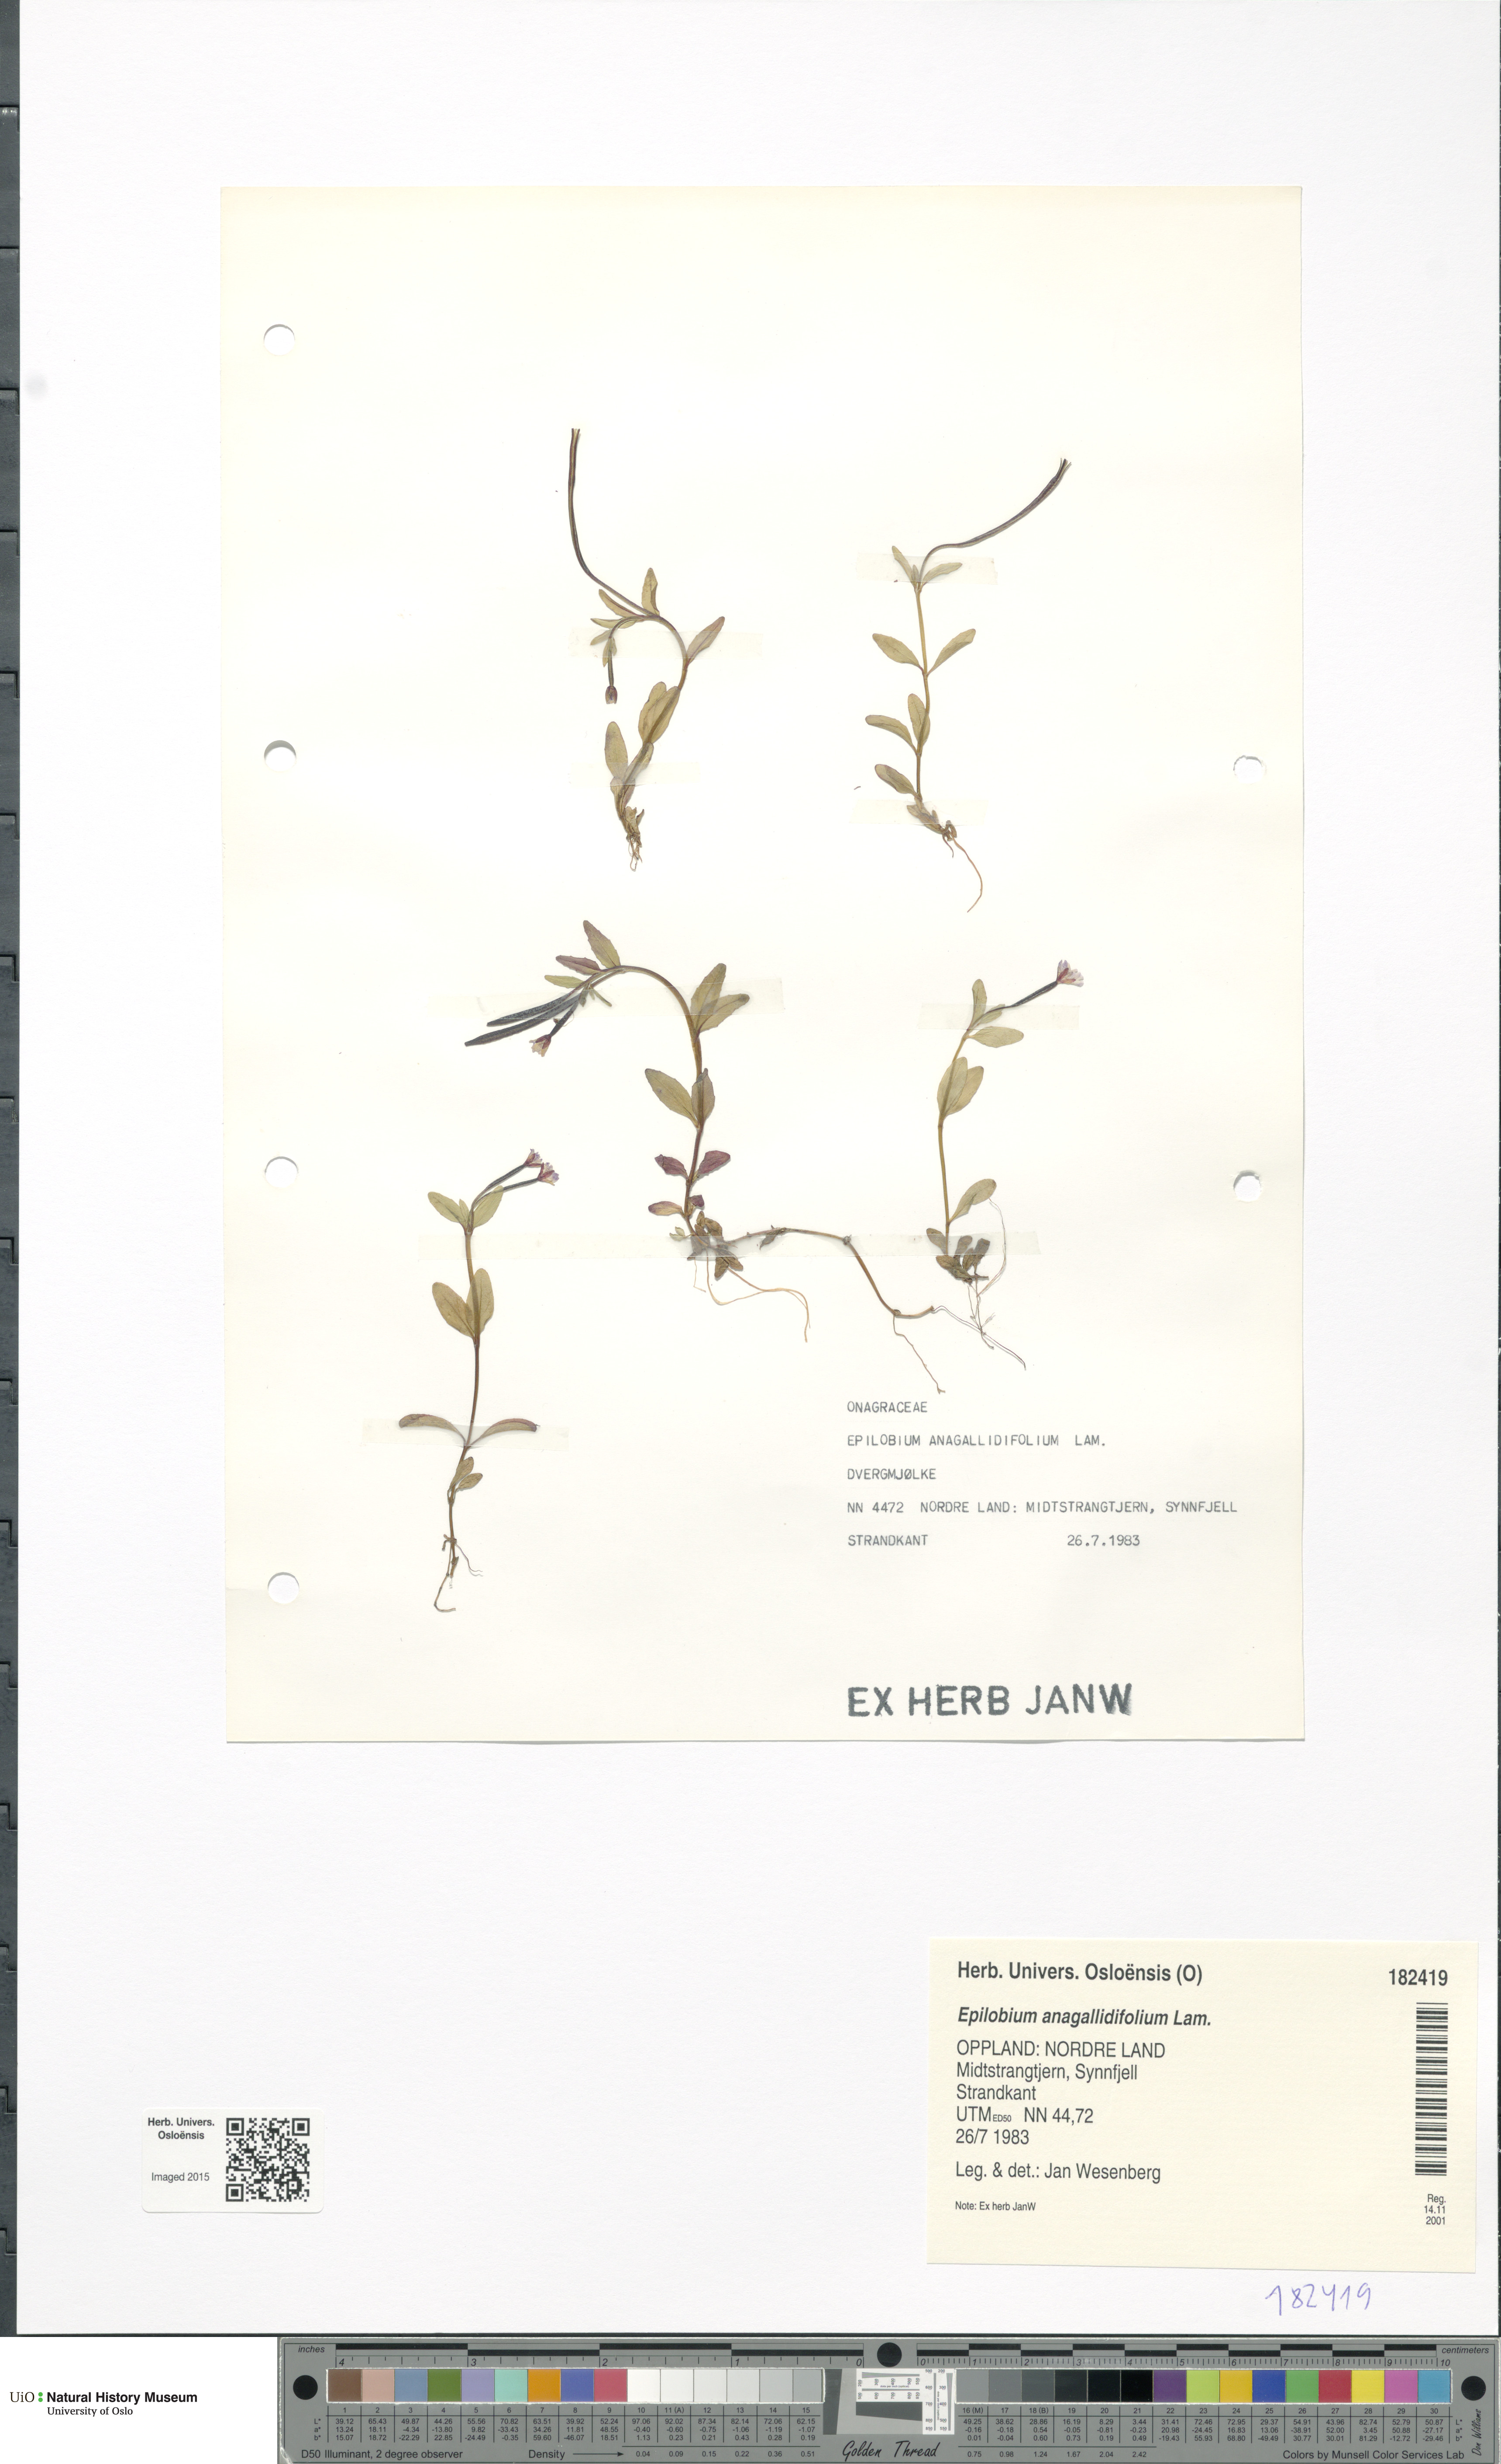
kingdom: Plantae
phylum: Tracheophyta
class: Magnoliopsida
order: Myrtales
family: Onagraceae
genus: Epilobium
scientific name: Epilobium anagallidifolium
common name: Alpine willowherb
